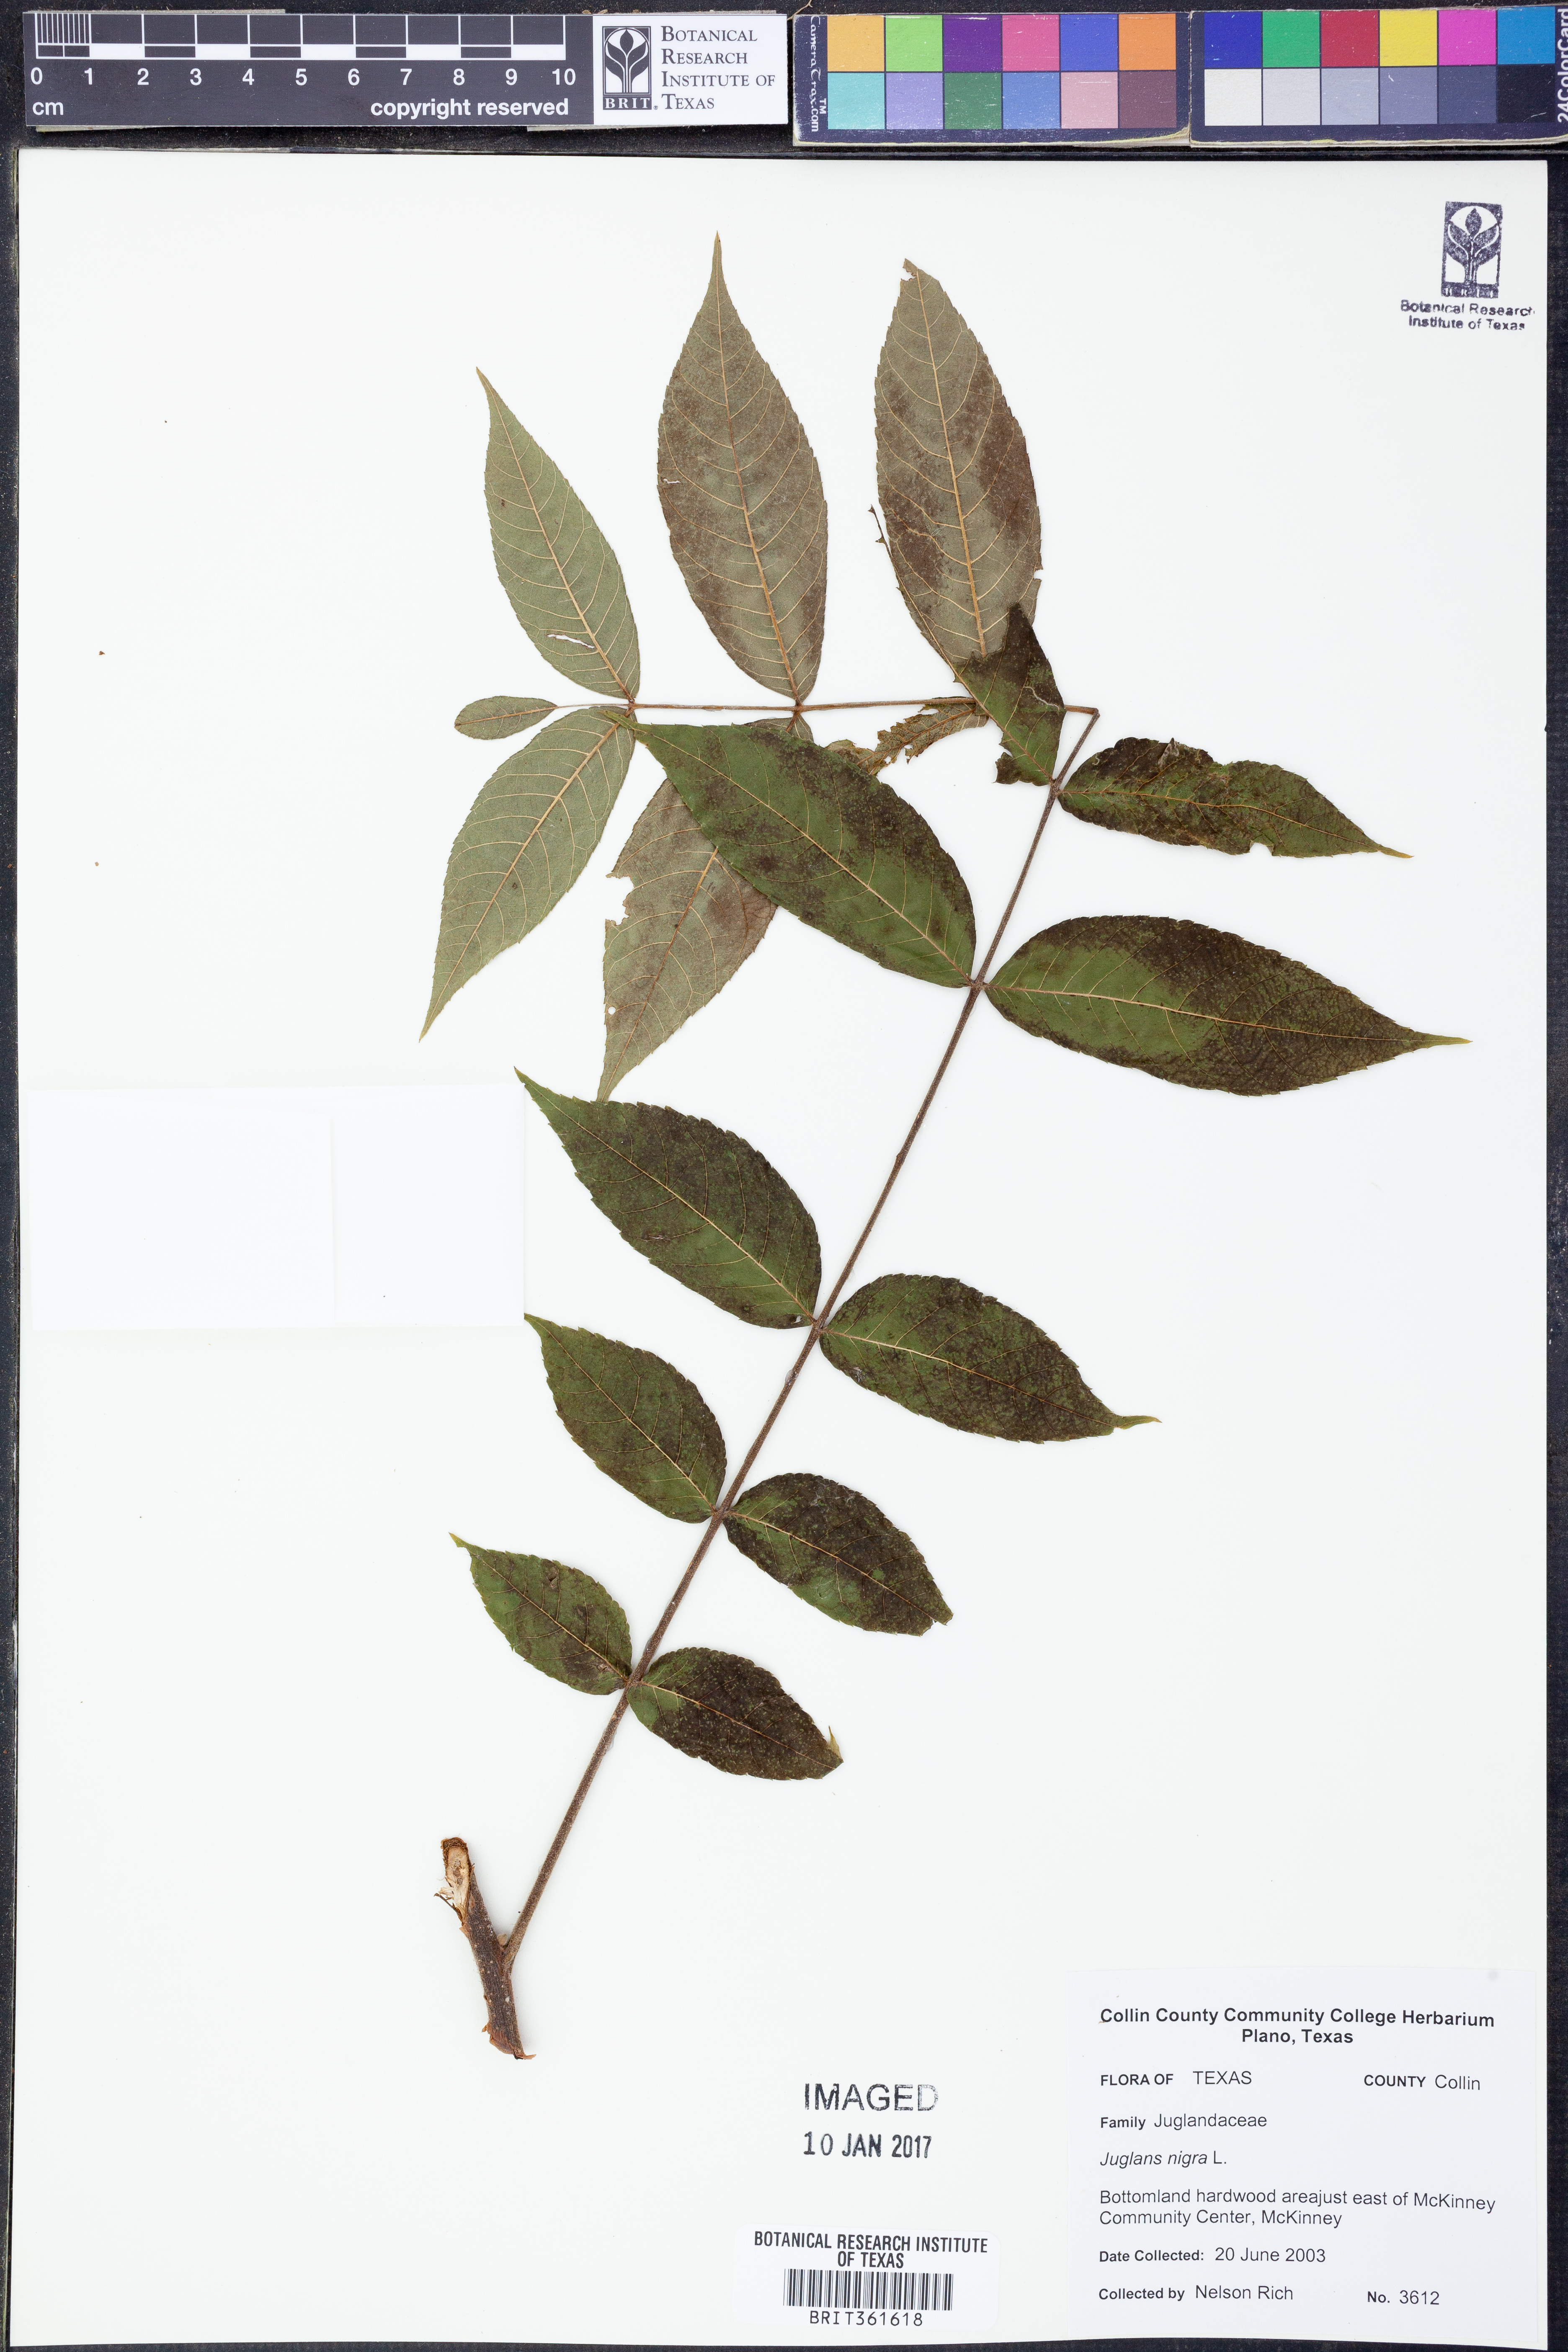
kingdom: Plantae
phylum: Tracheophyta
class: Magnoliopsida
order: Fagales
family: Juglandaceae
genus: Juglans
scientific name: Juglans nigra
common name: Black walnut
